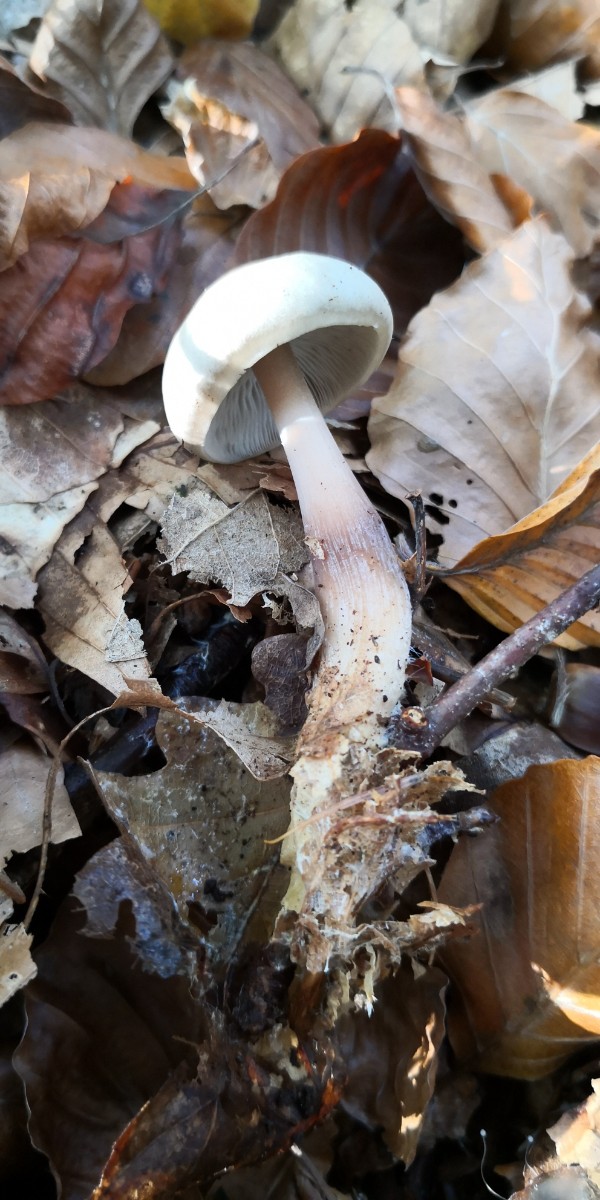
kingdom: Fungi
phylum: Basidiomycota
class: Agaricomycetes
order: Agaricales
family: Omphalotaceae
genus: Rhodocollybia
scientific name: Rhodocollybia asema
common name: horngrå fladhat
